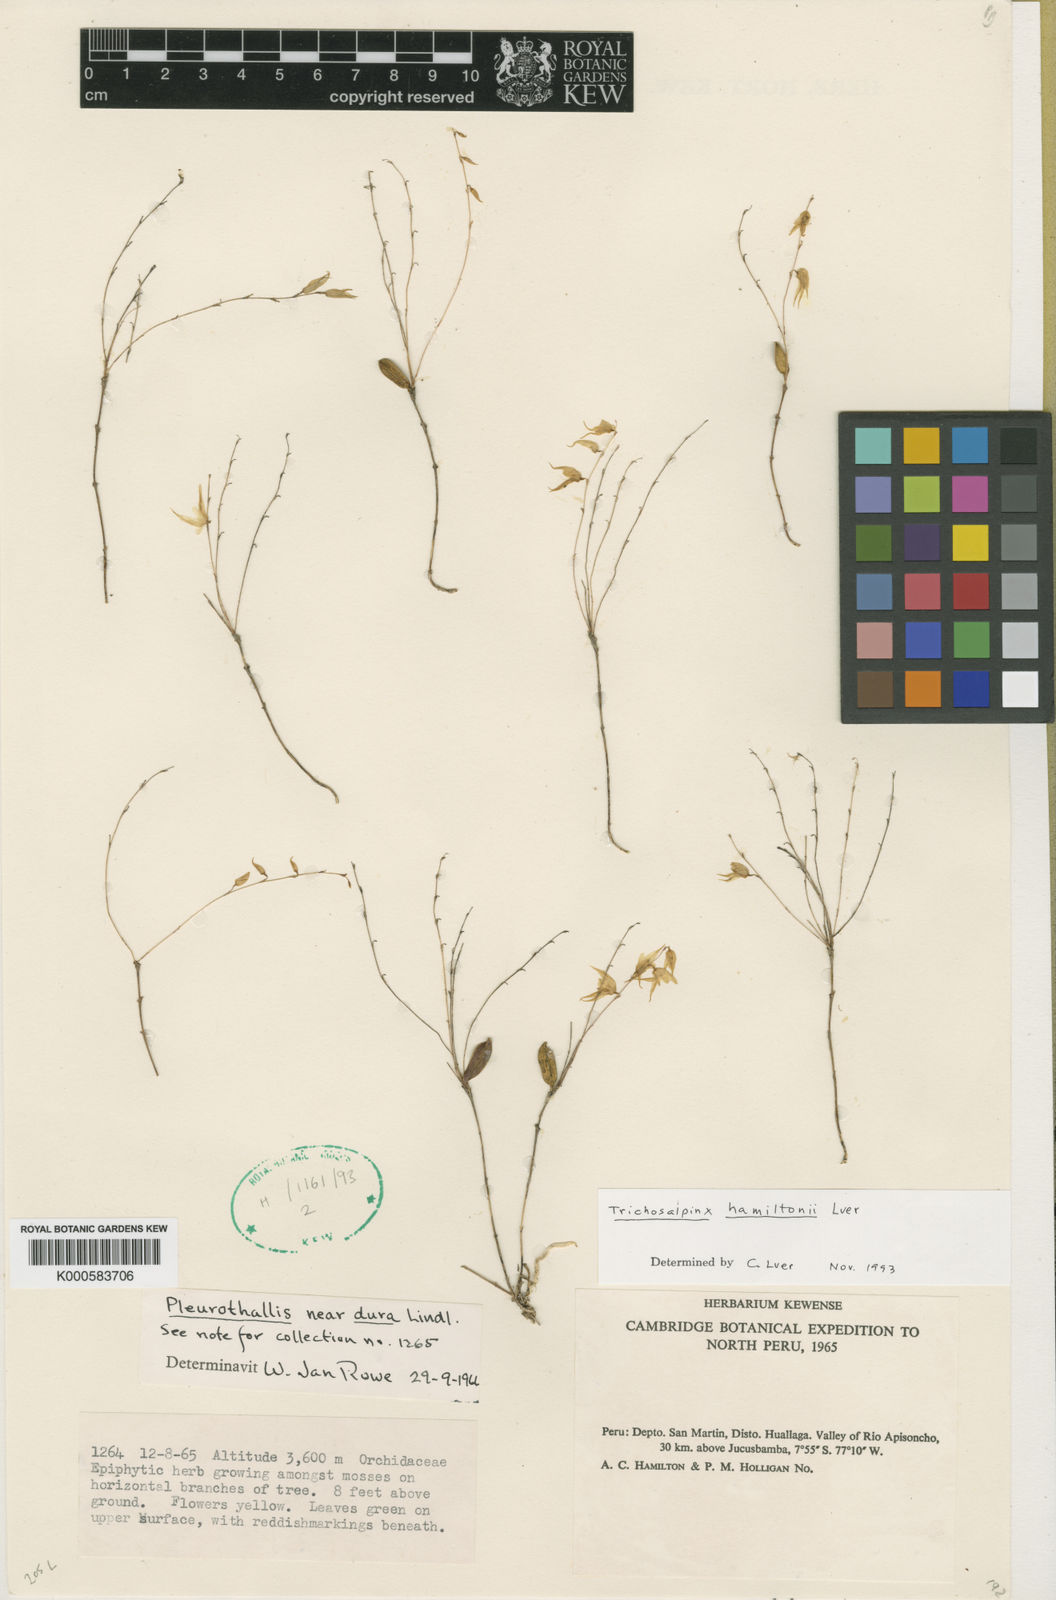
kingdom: Plantae
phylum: Tracheophyta
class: Liliopsida
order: Asparagales
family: Orchidaceae
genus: Stelis
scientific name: Stelis hamiltonii
